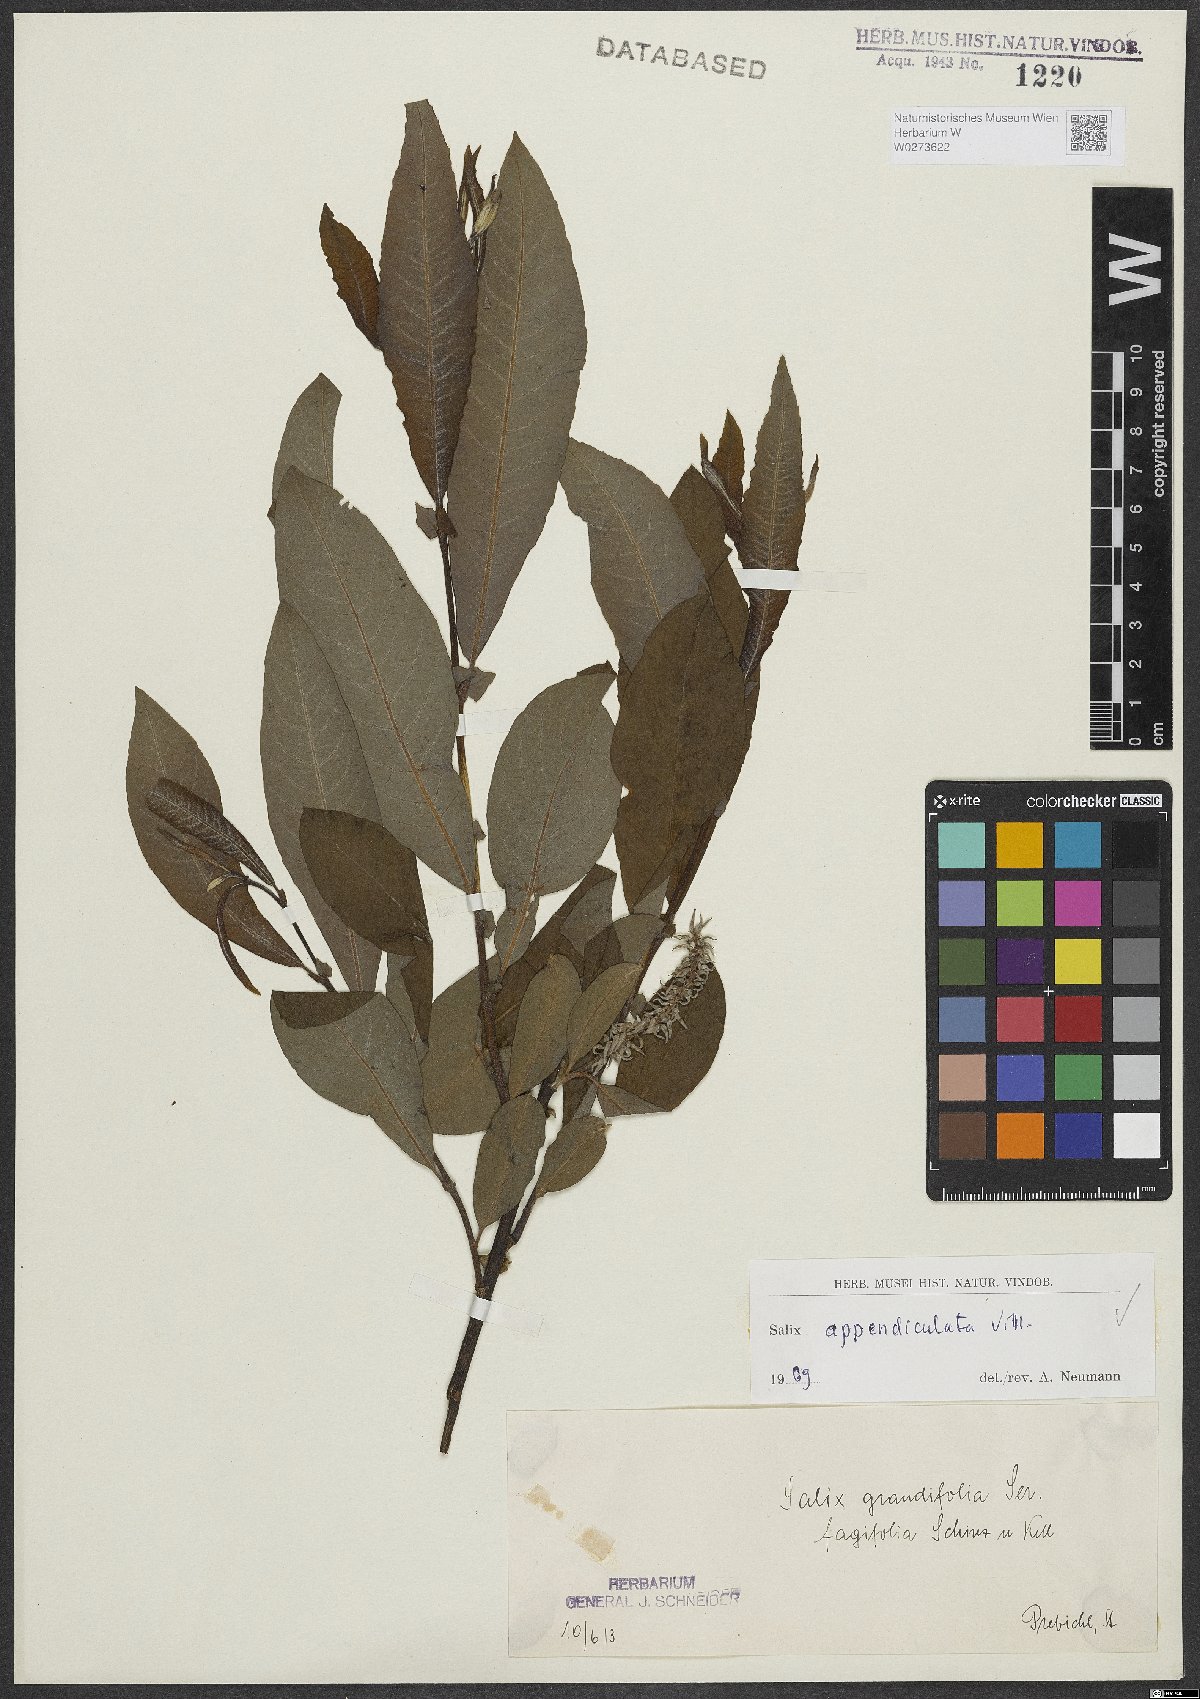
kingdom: Plantae
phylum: Tracheophyta
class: Magnoliopsida
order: Malpighiales
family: Salicaceae
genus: Salix
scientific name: Salix appendiculata
